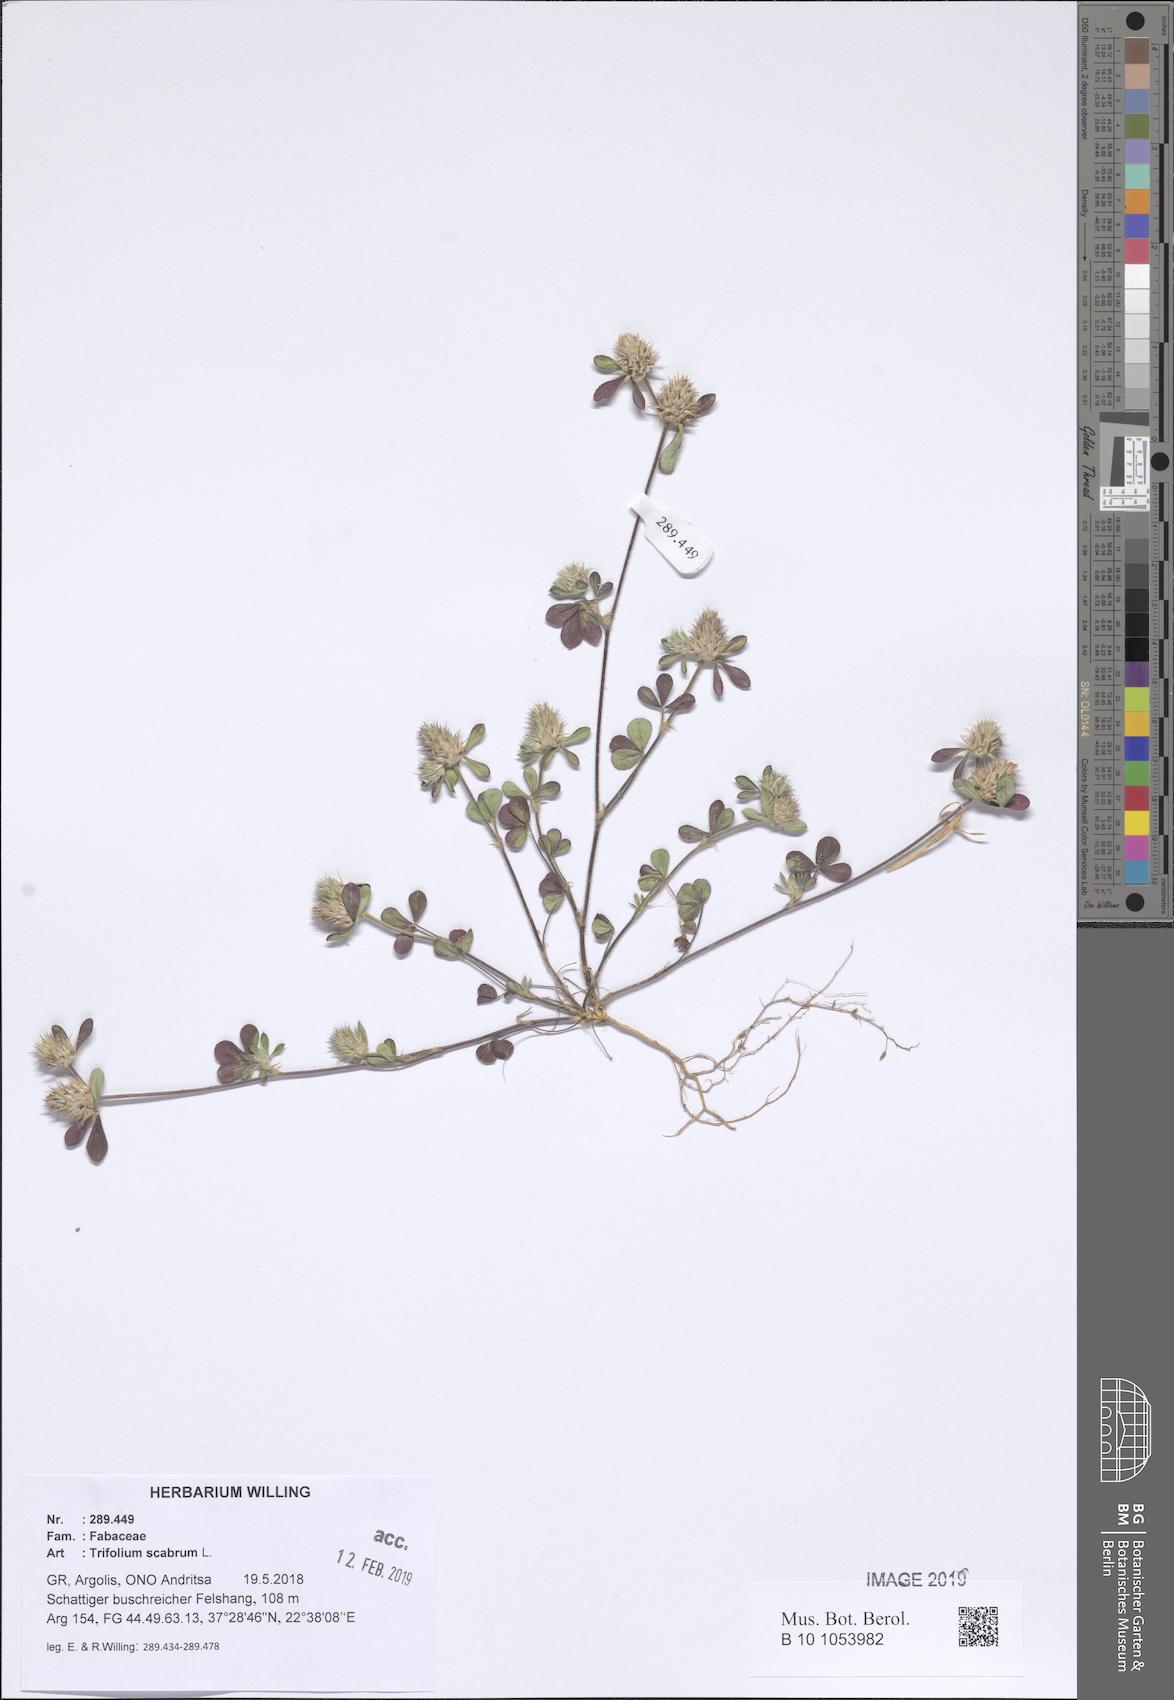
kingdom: Plantae
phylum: Tracheophyta
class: Magnoliopsida
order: Fabales
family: Fabaceae
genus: Trifolium
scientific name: Trifolium scabrum
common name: Rough clover
